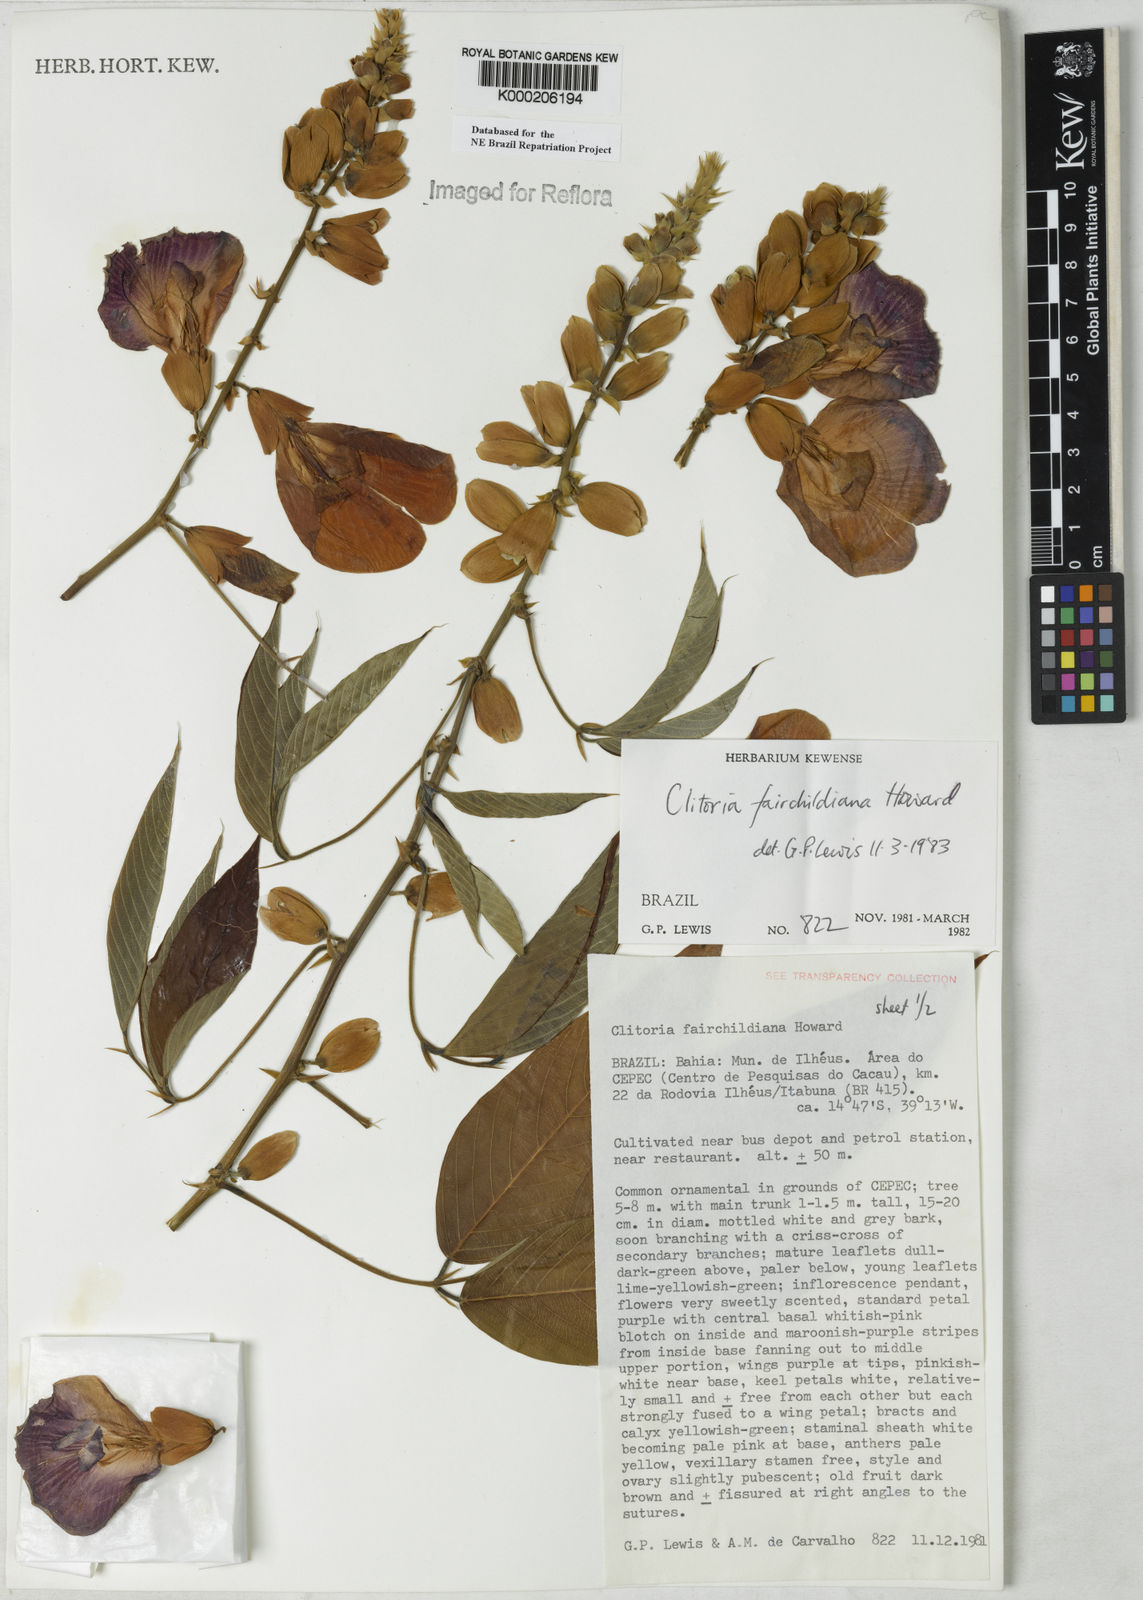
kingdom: Plantae
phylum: Tracheophyta
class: Magnoliopsida
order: Fabales
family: Fabaceae
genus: Clitoria
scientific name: Clitoria fairchildiana
